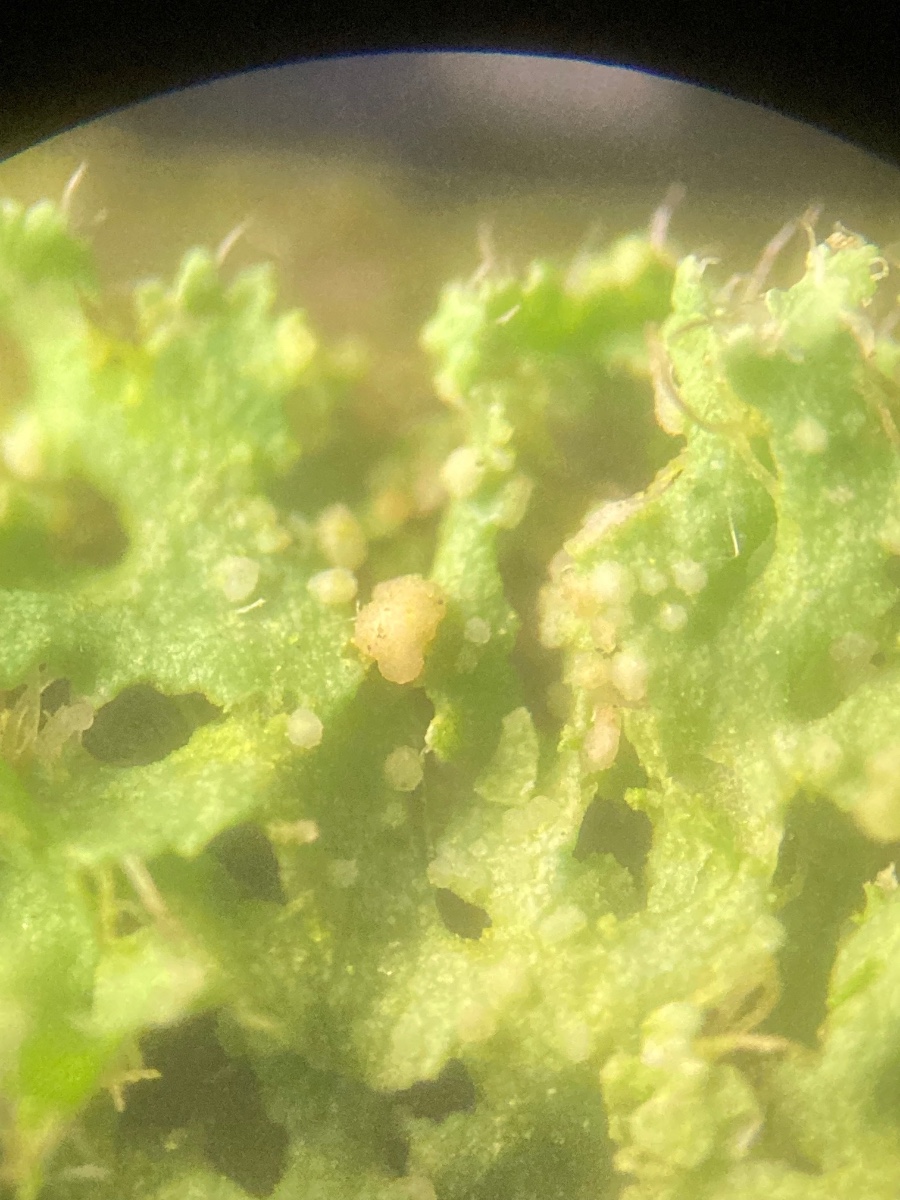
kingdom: Fungi
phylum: Basidiomycota
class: Tremellomycetes
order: Filobasidiales
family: Filobasidiaceae
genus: Zyzygomyces
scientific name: Zyzygomyces physciacearum
